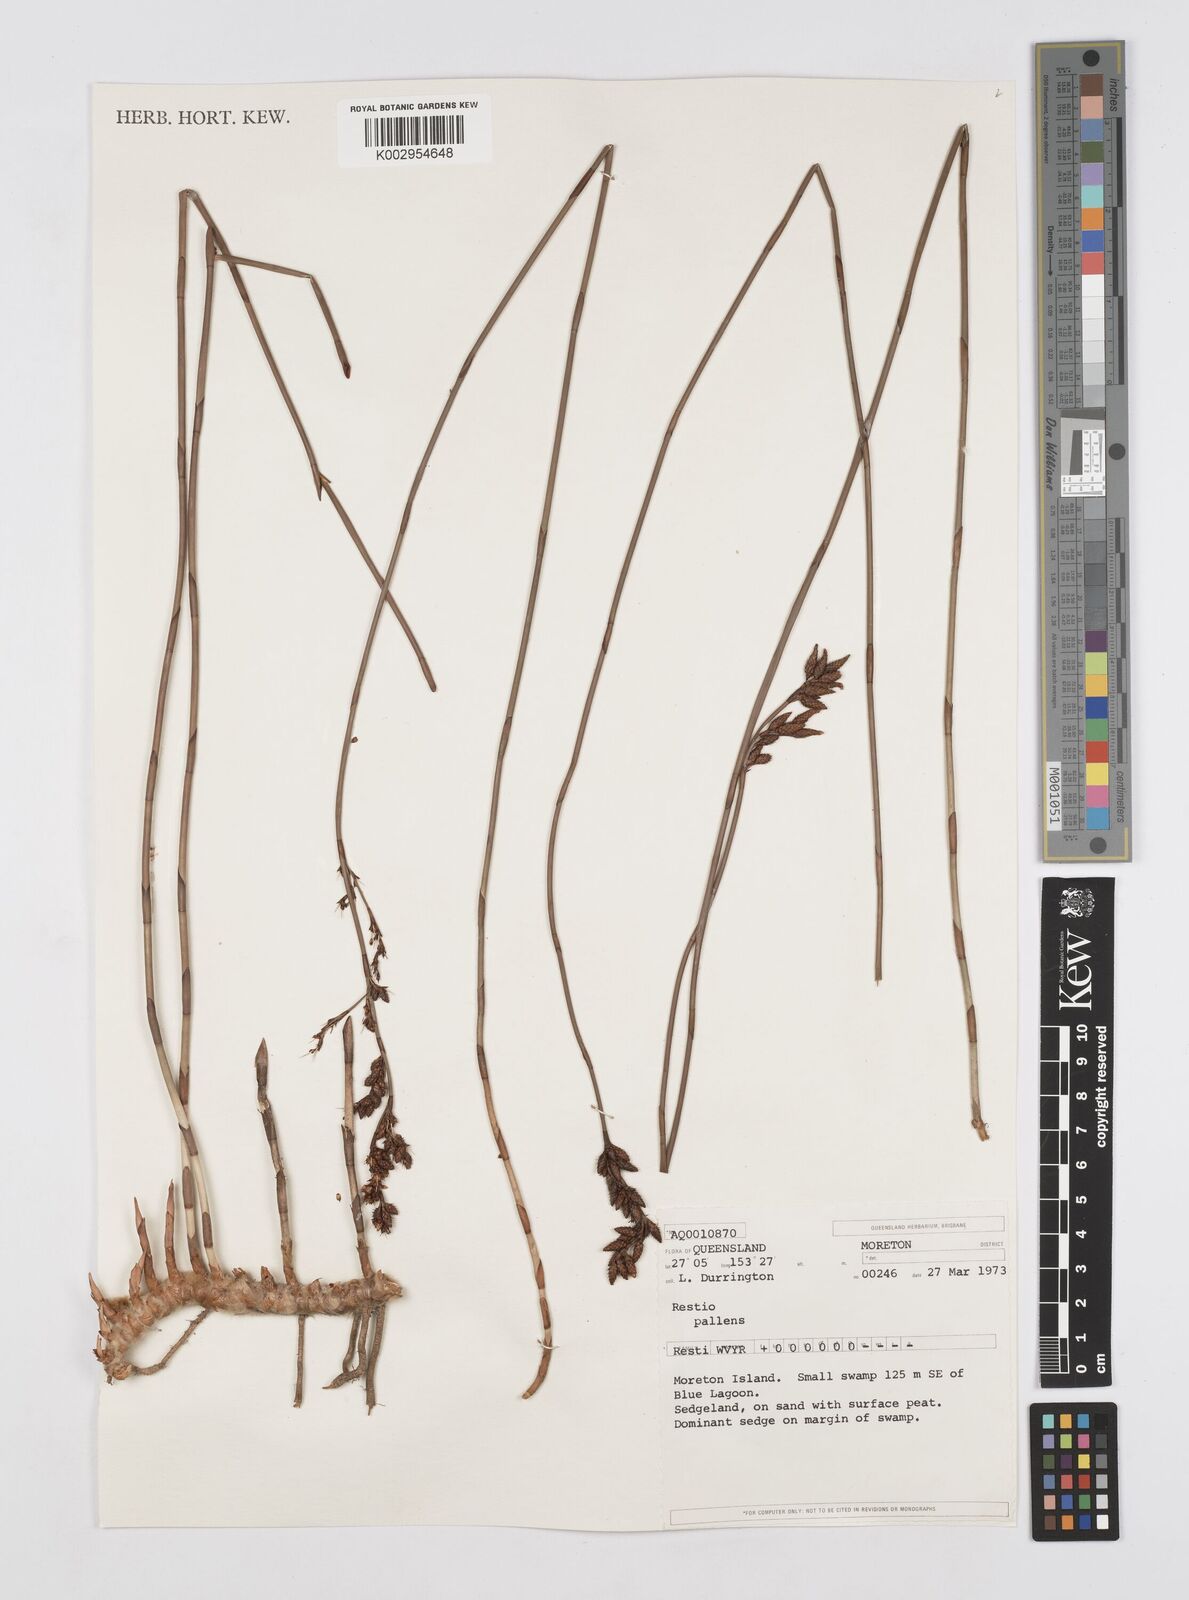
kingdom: Plantae
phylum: Tracheophyta
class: Liliopsida
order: Poales
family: Restionaceae
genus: Baloskion
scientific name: Baloskion pallens
